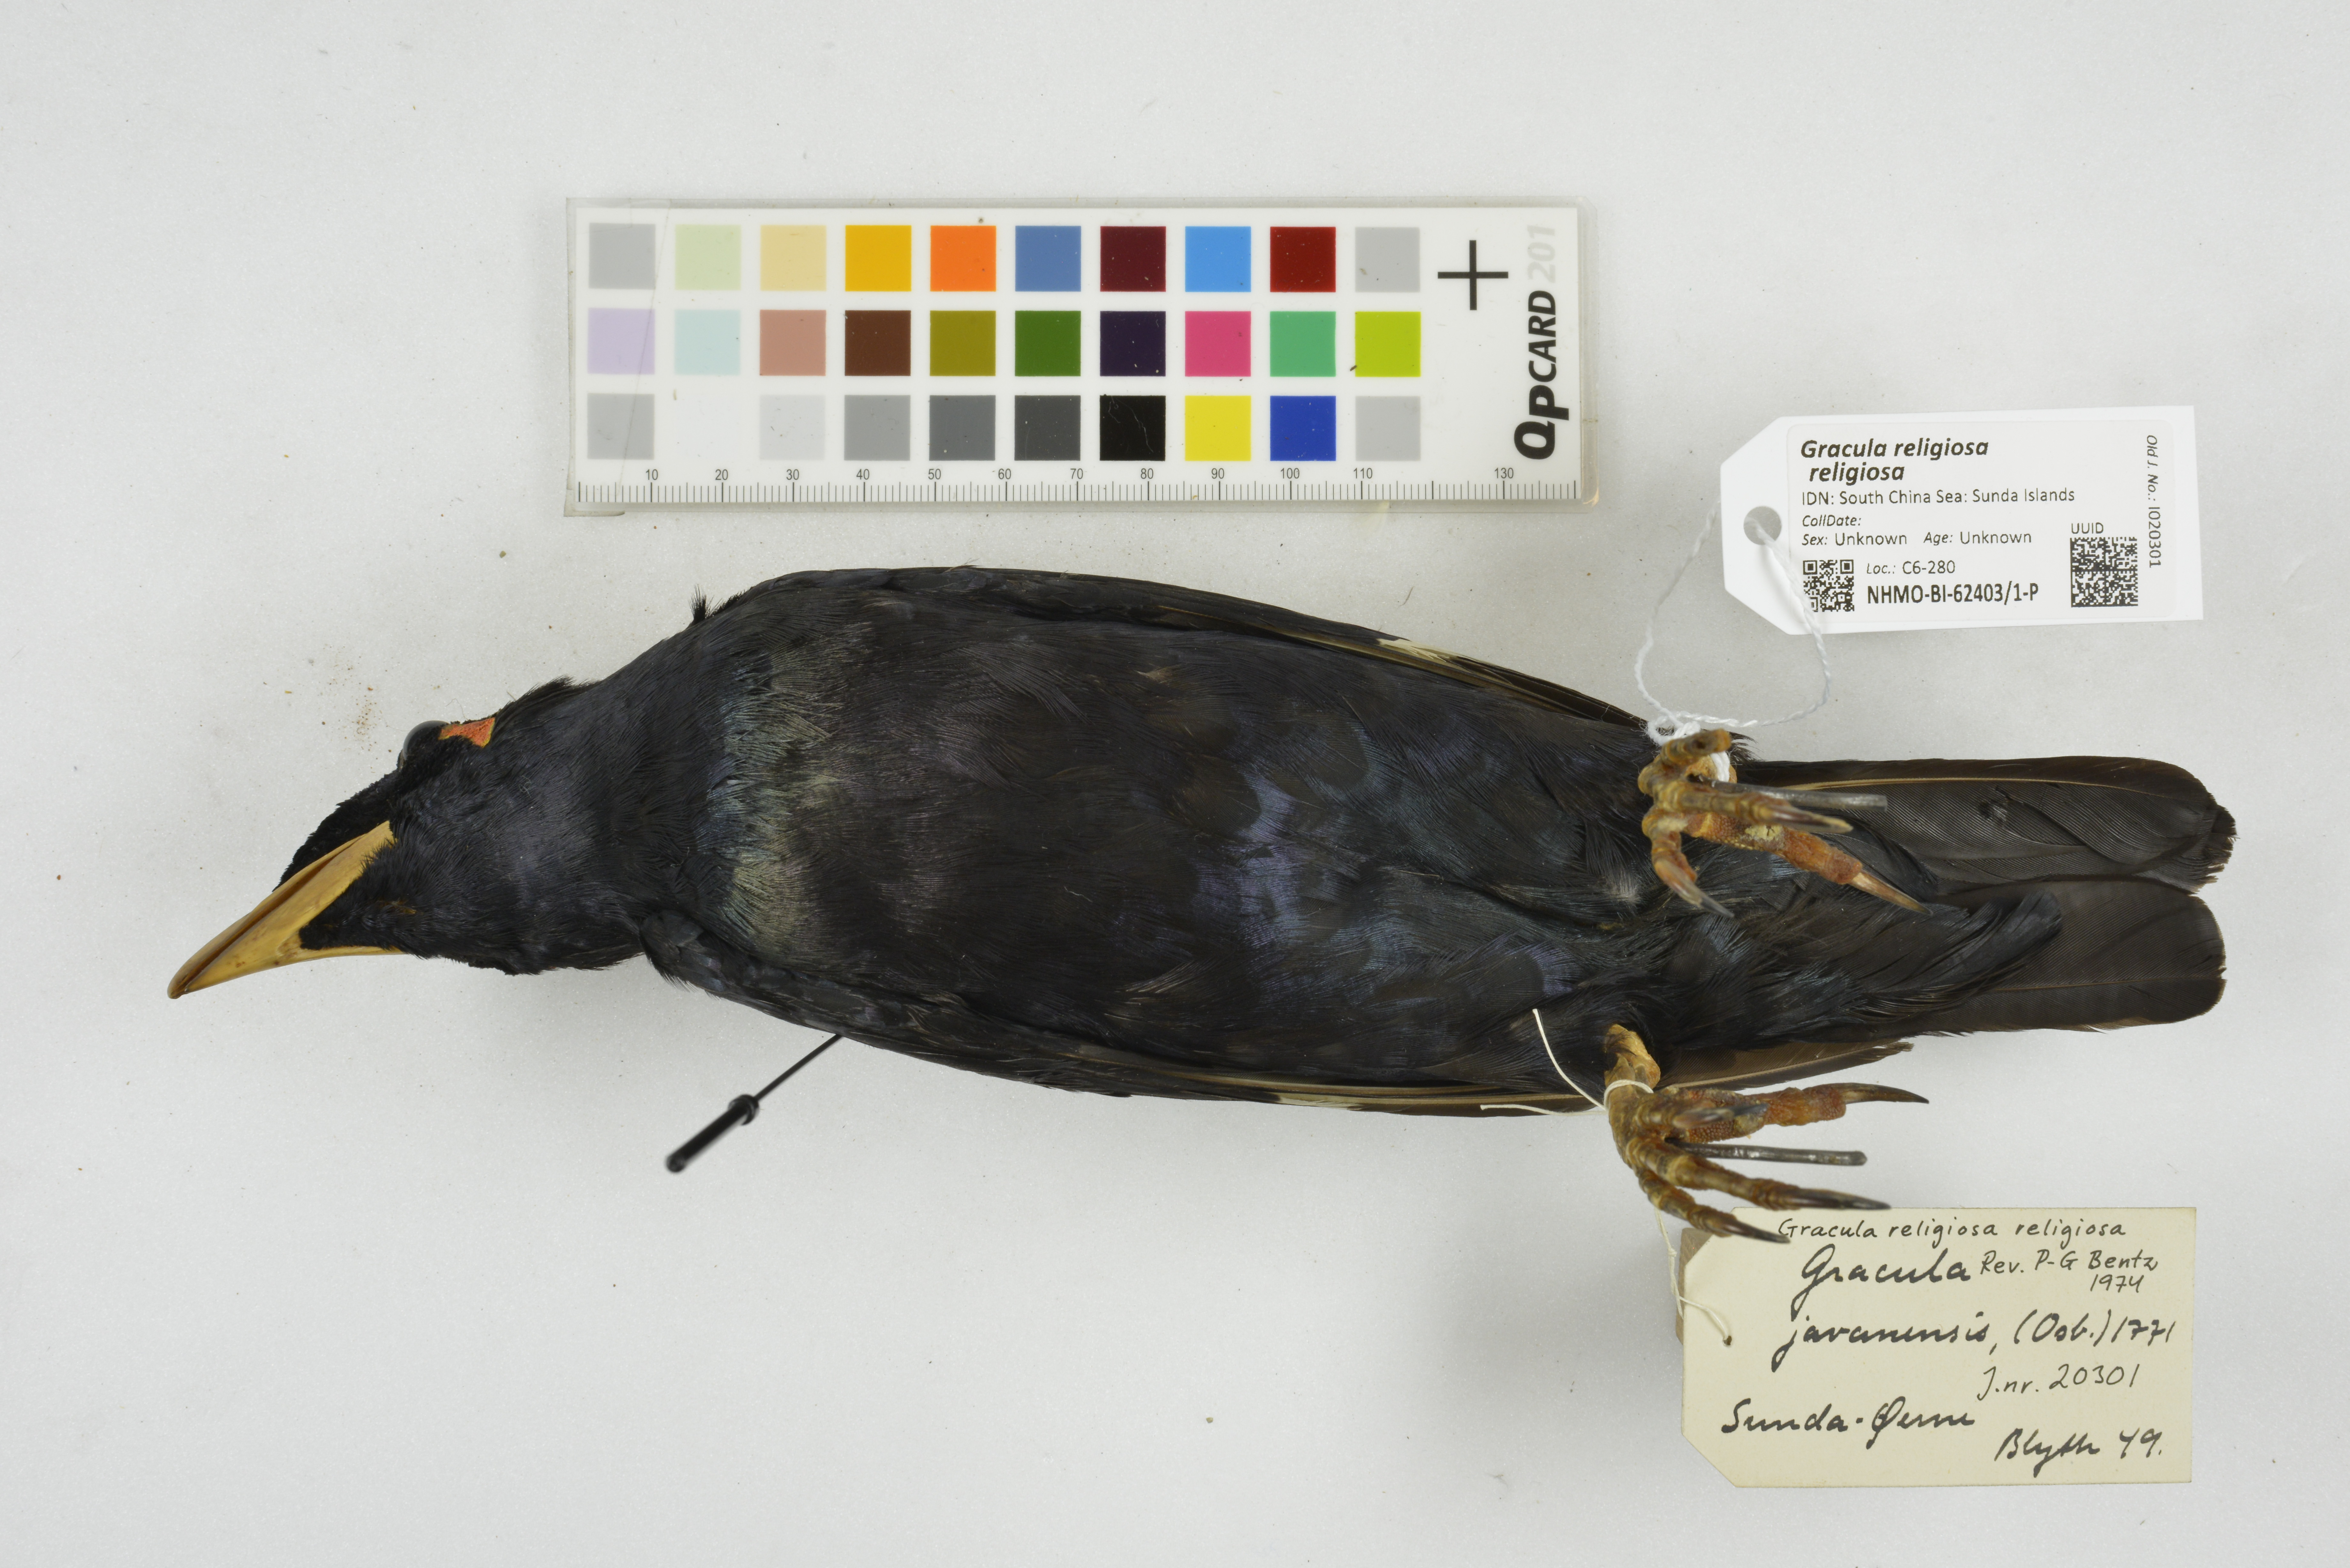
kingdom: Animalia
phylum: Chordata
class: Aves
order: Passeriformes
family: Sturnidae
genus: Gracula
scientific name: Gracula religiosa
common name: Common hill myna
